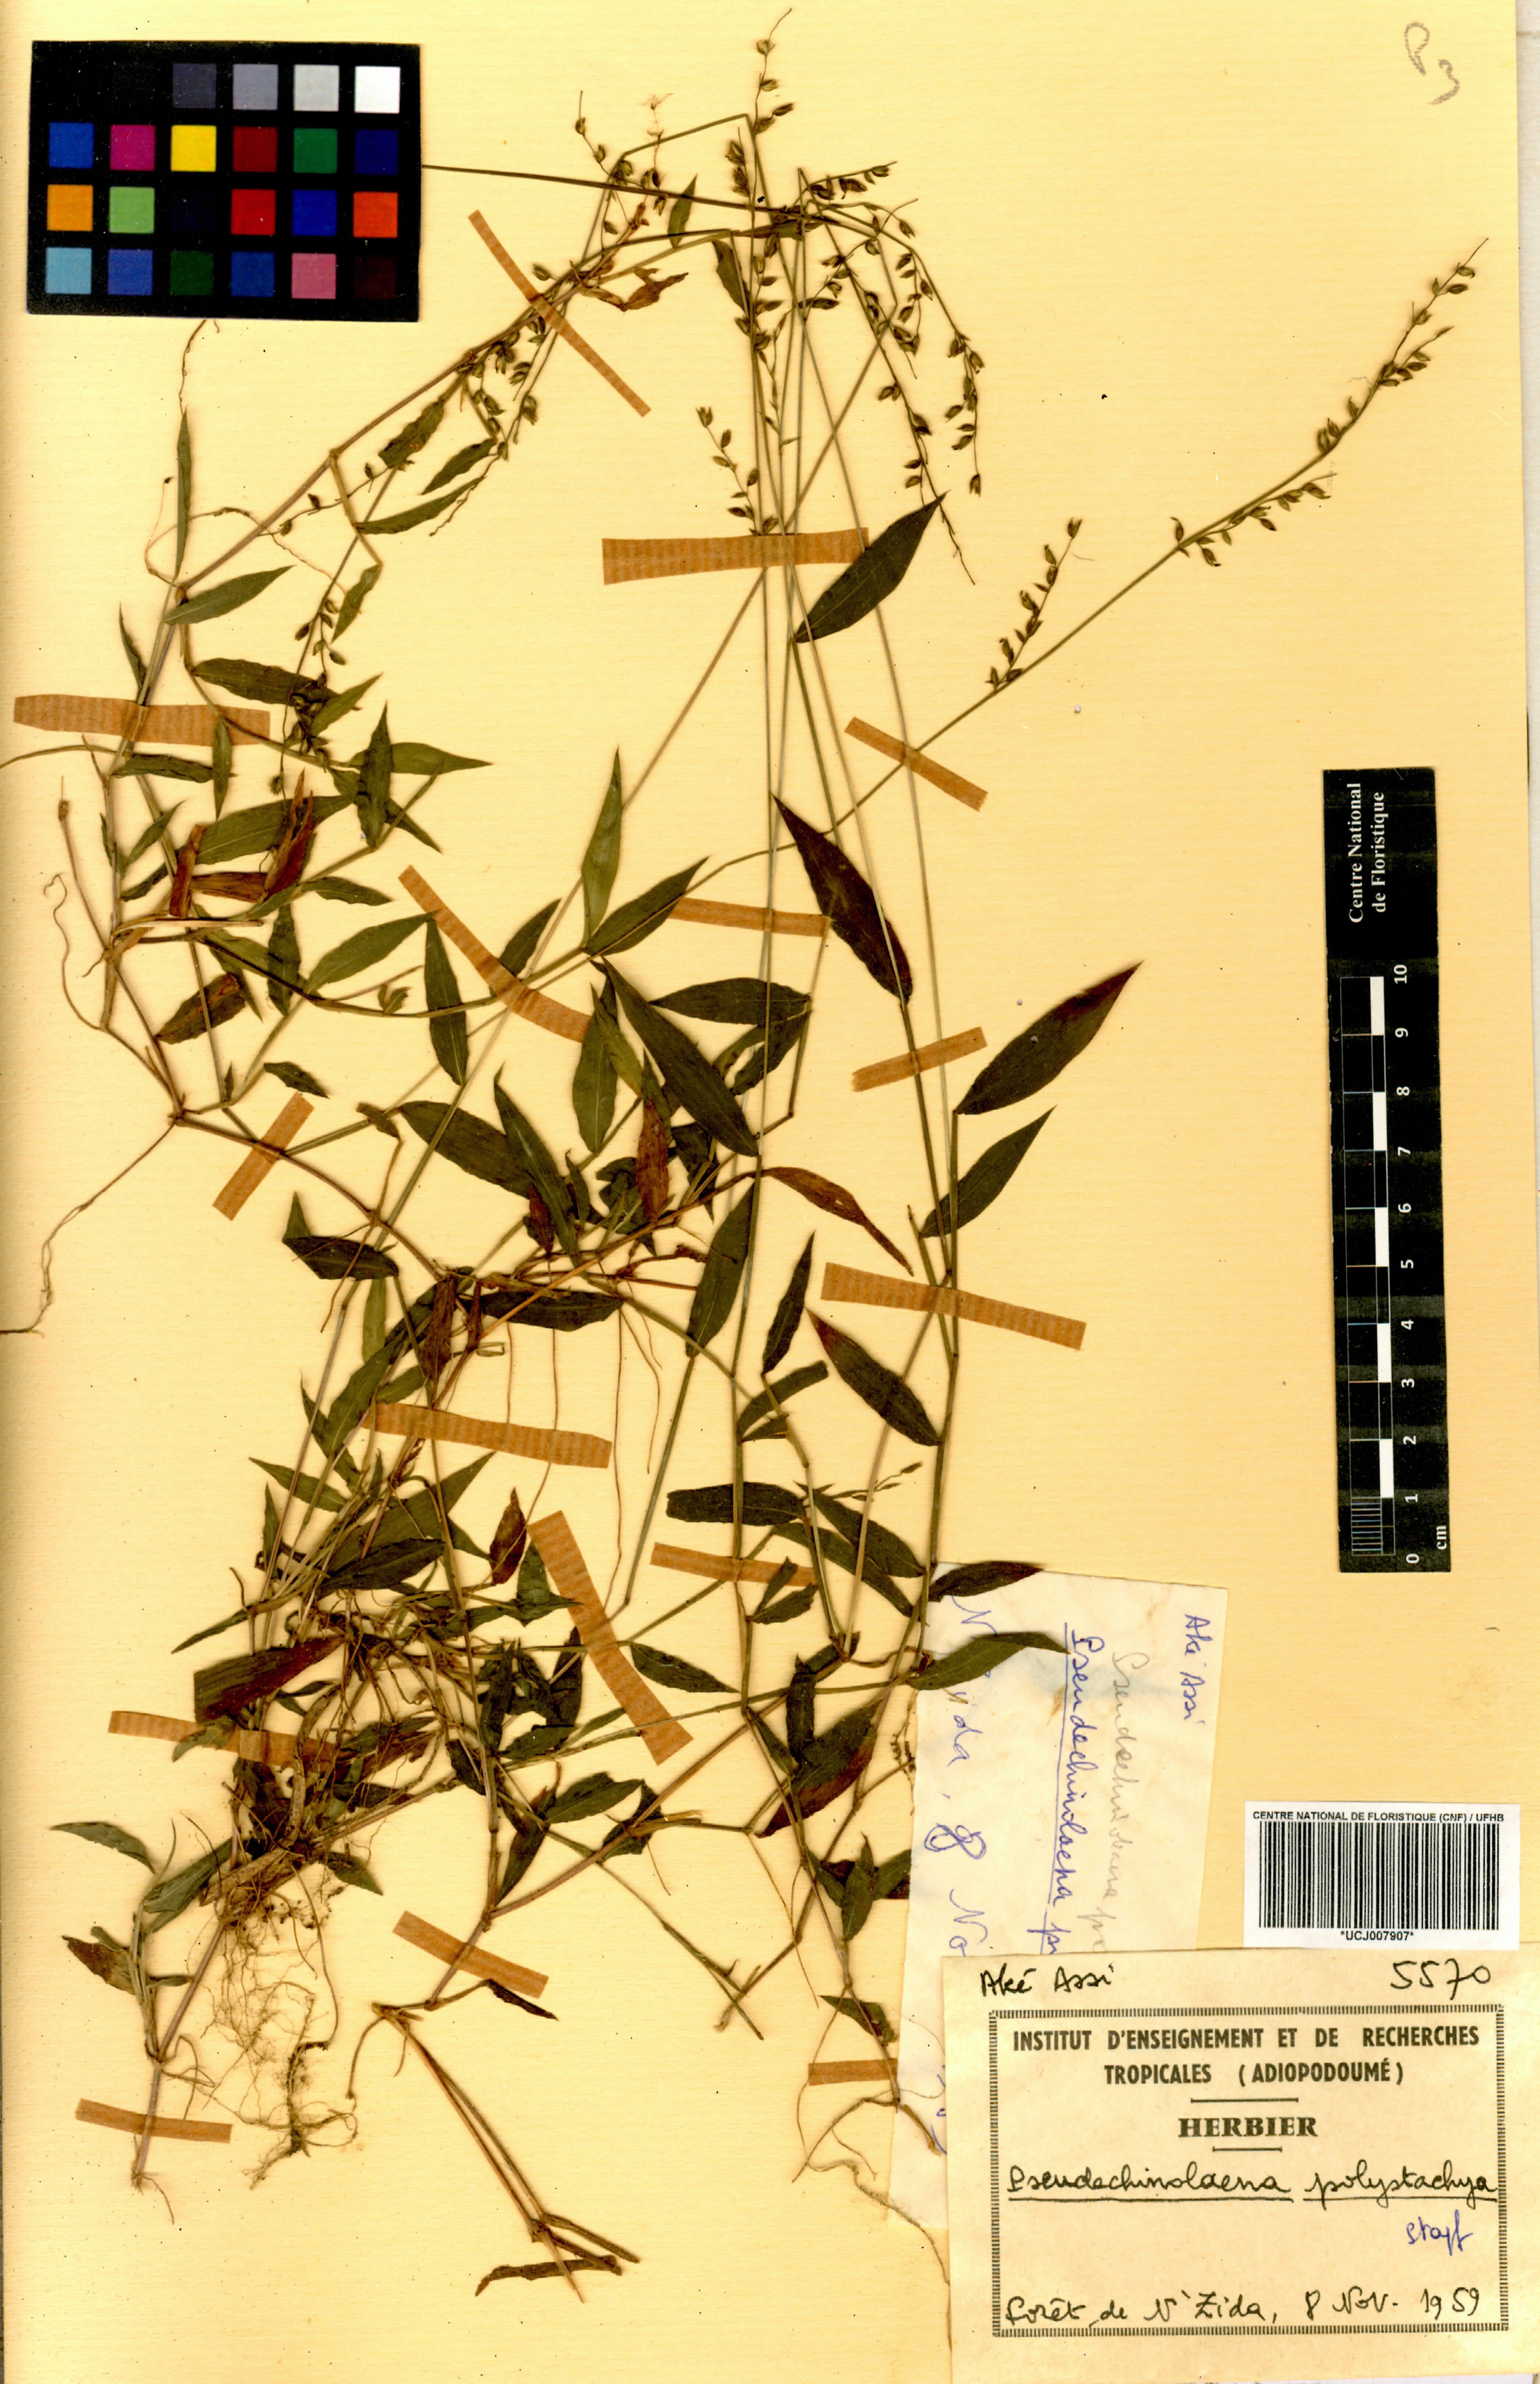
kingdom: Plantae
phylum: Tracheophyta
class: Liliopsida
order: Poales
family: Poaceae
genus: Pseudechinolaena
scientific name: Pseudechinolaena polystachya
